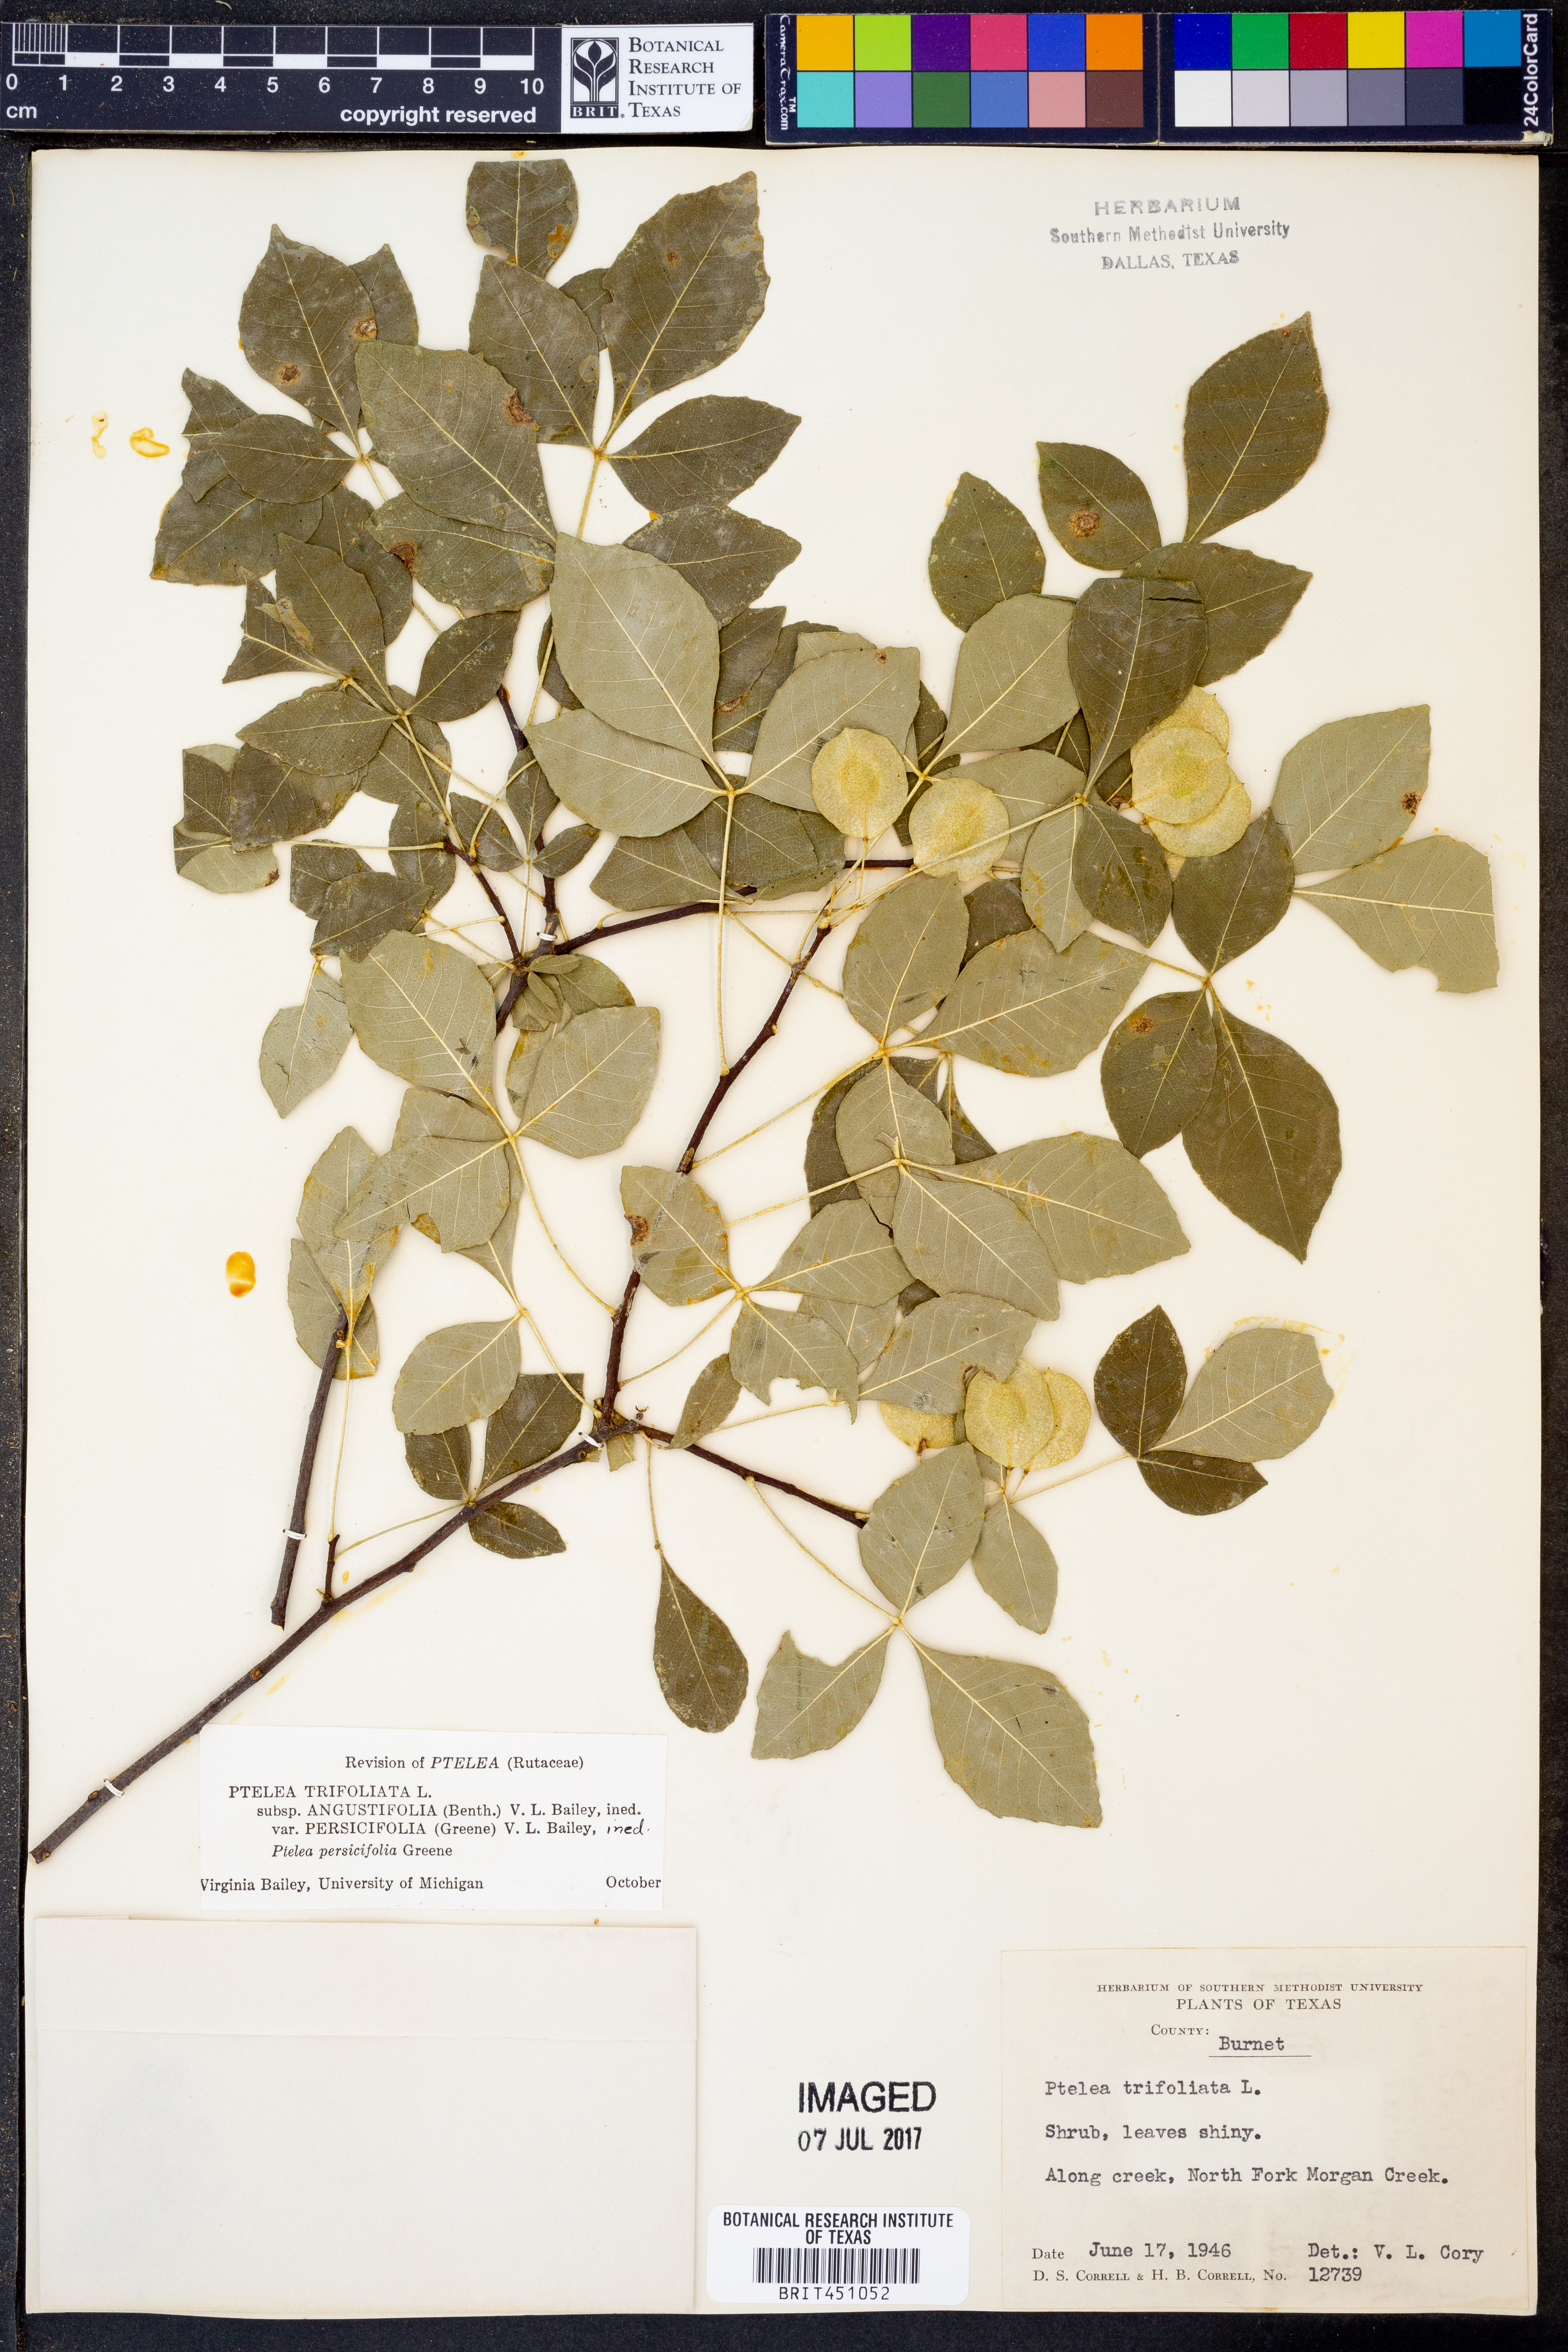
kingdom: Plantae
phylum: Tracheophyta
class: Magnoliopsida
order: Sapindales
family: Rutaceae
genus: Ptelea
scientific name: Ptelea trifoliata
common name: Common hop-tree
